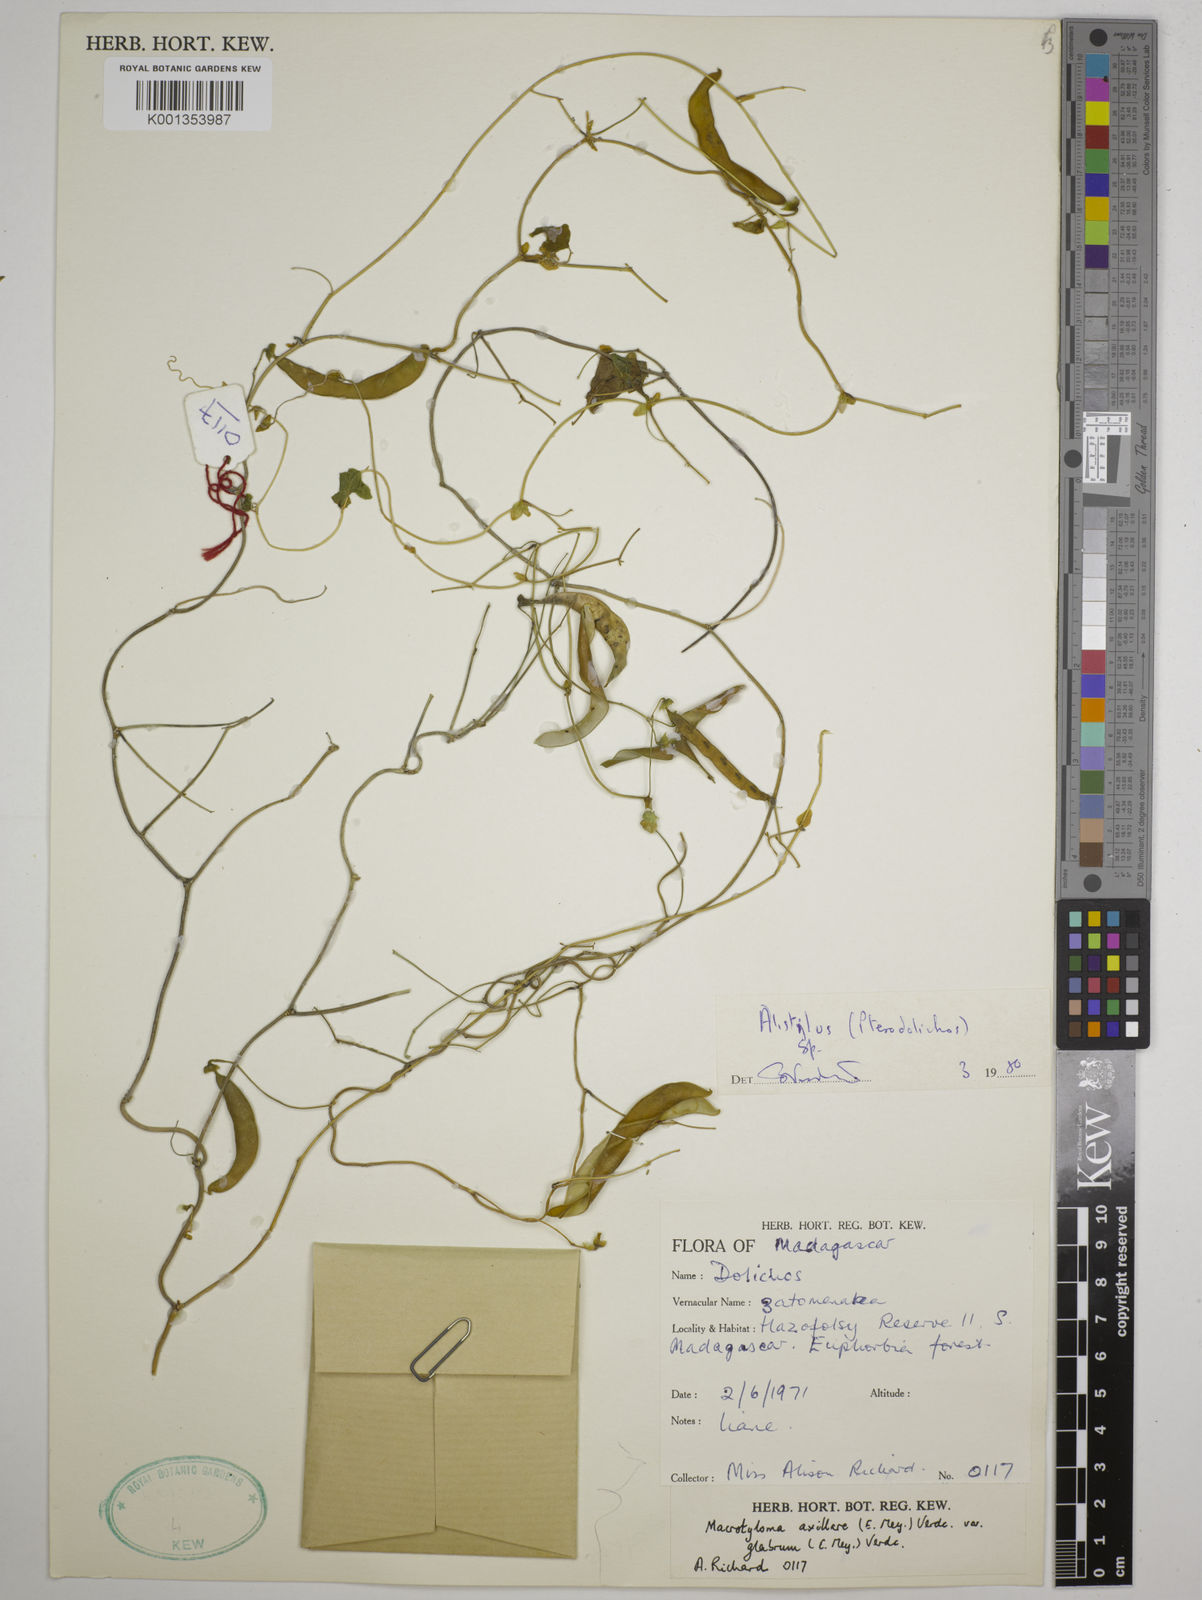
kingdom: Plantae
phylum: Tracheophyta
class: Magnoliopsida
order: Fabales
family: Fabaceae
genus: Alistilus
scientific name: Alistilus
